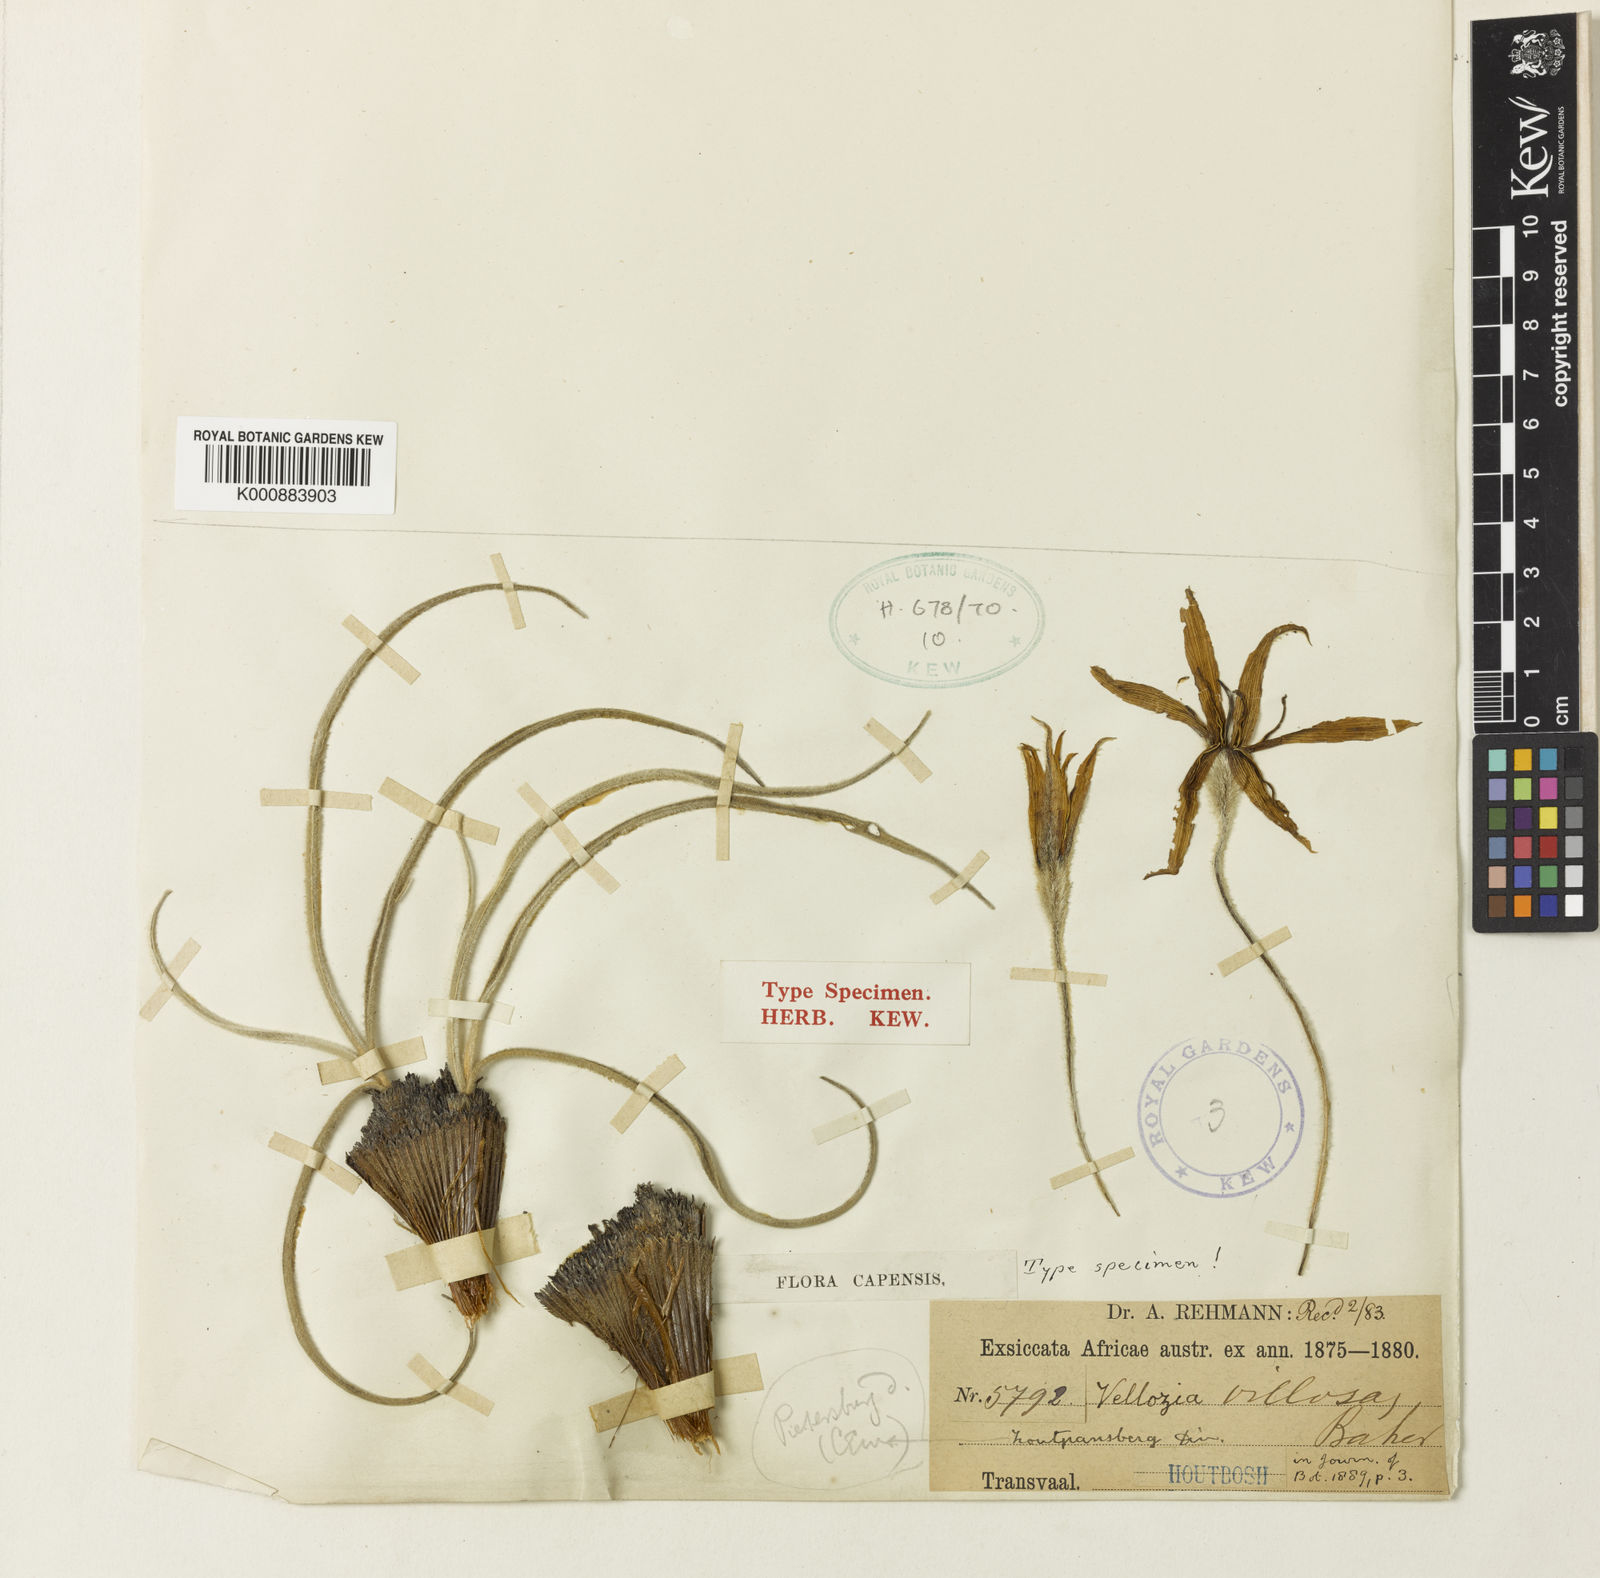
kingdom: Plantae
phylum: Tracheophyta
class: Liliopsida
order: Pandanales
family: Velloziaceae
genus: Xerophyta
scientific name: Xerophyta villosa
